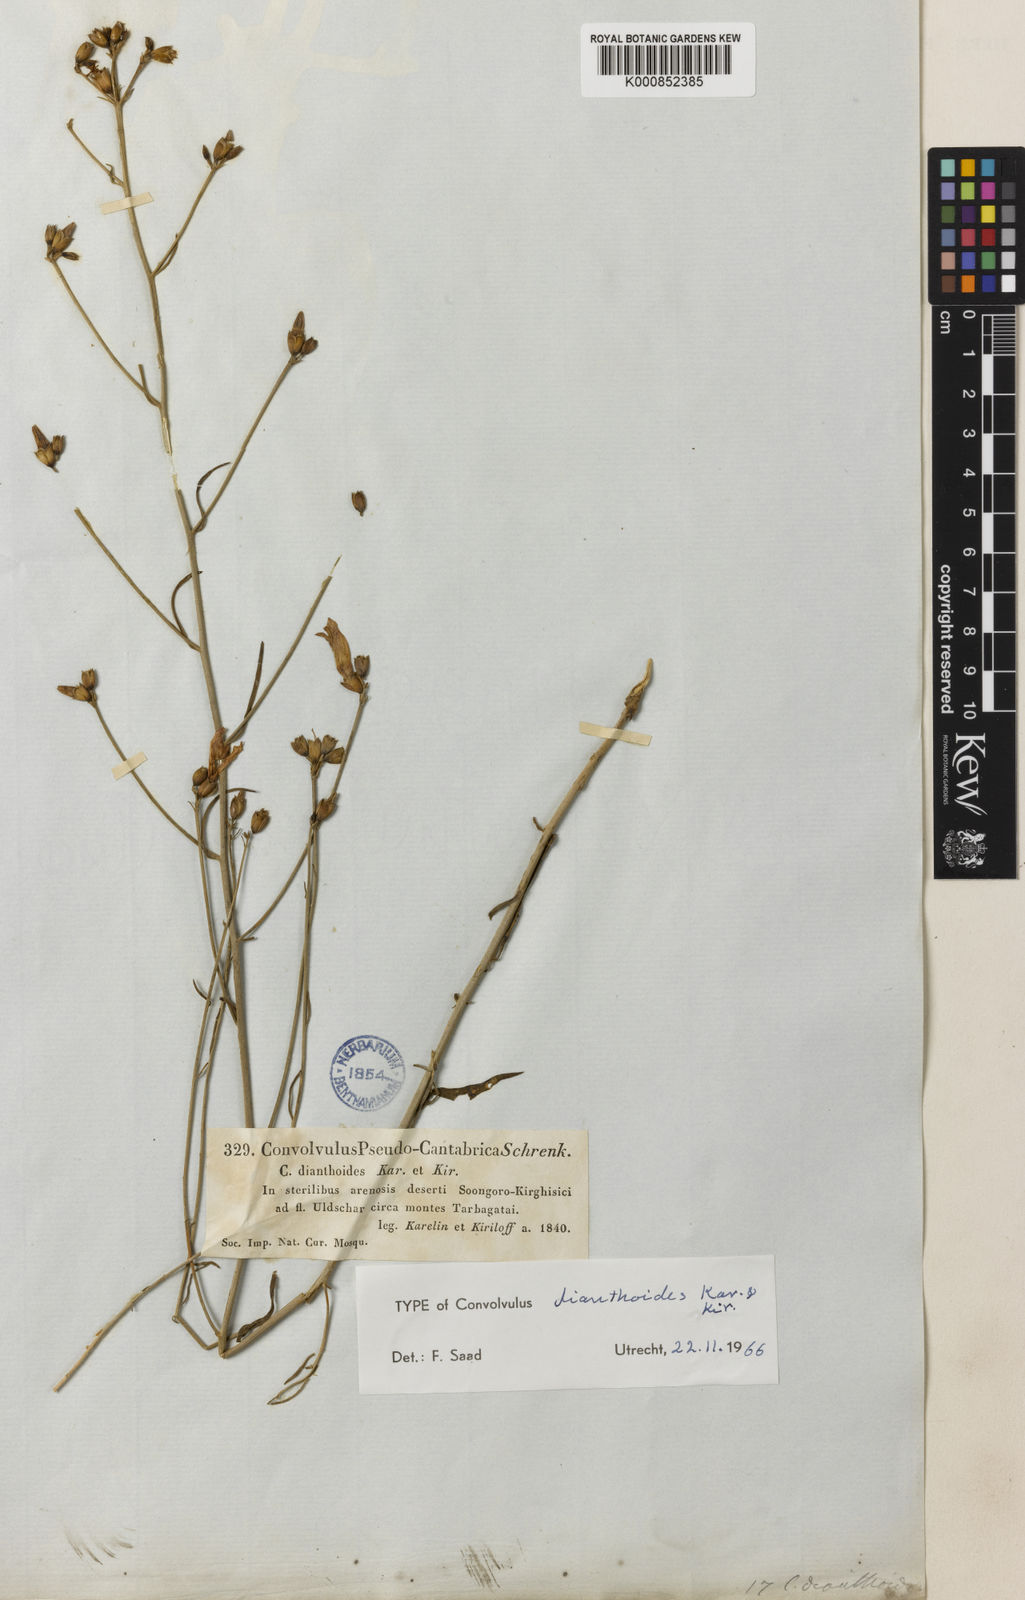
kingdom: Plantae
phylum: Tracheophyta
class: Magnoliopsida
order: Solanales
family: Convolvulaceae
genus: Convolvulus
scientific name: Convolvulus
